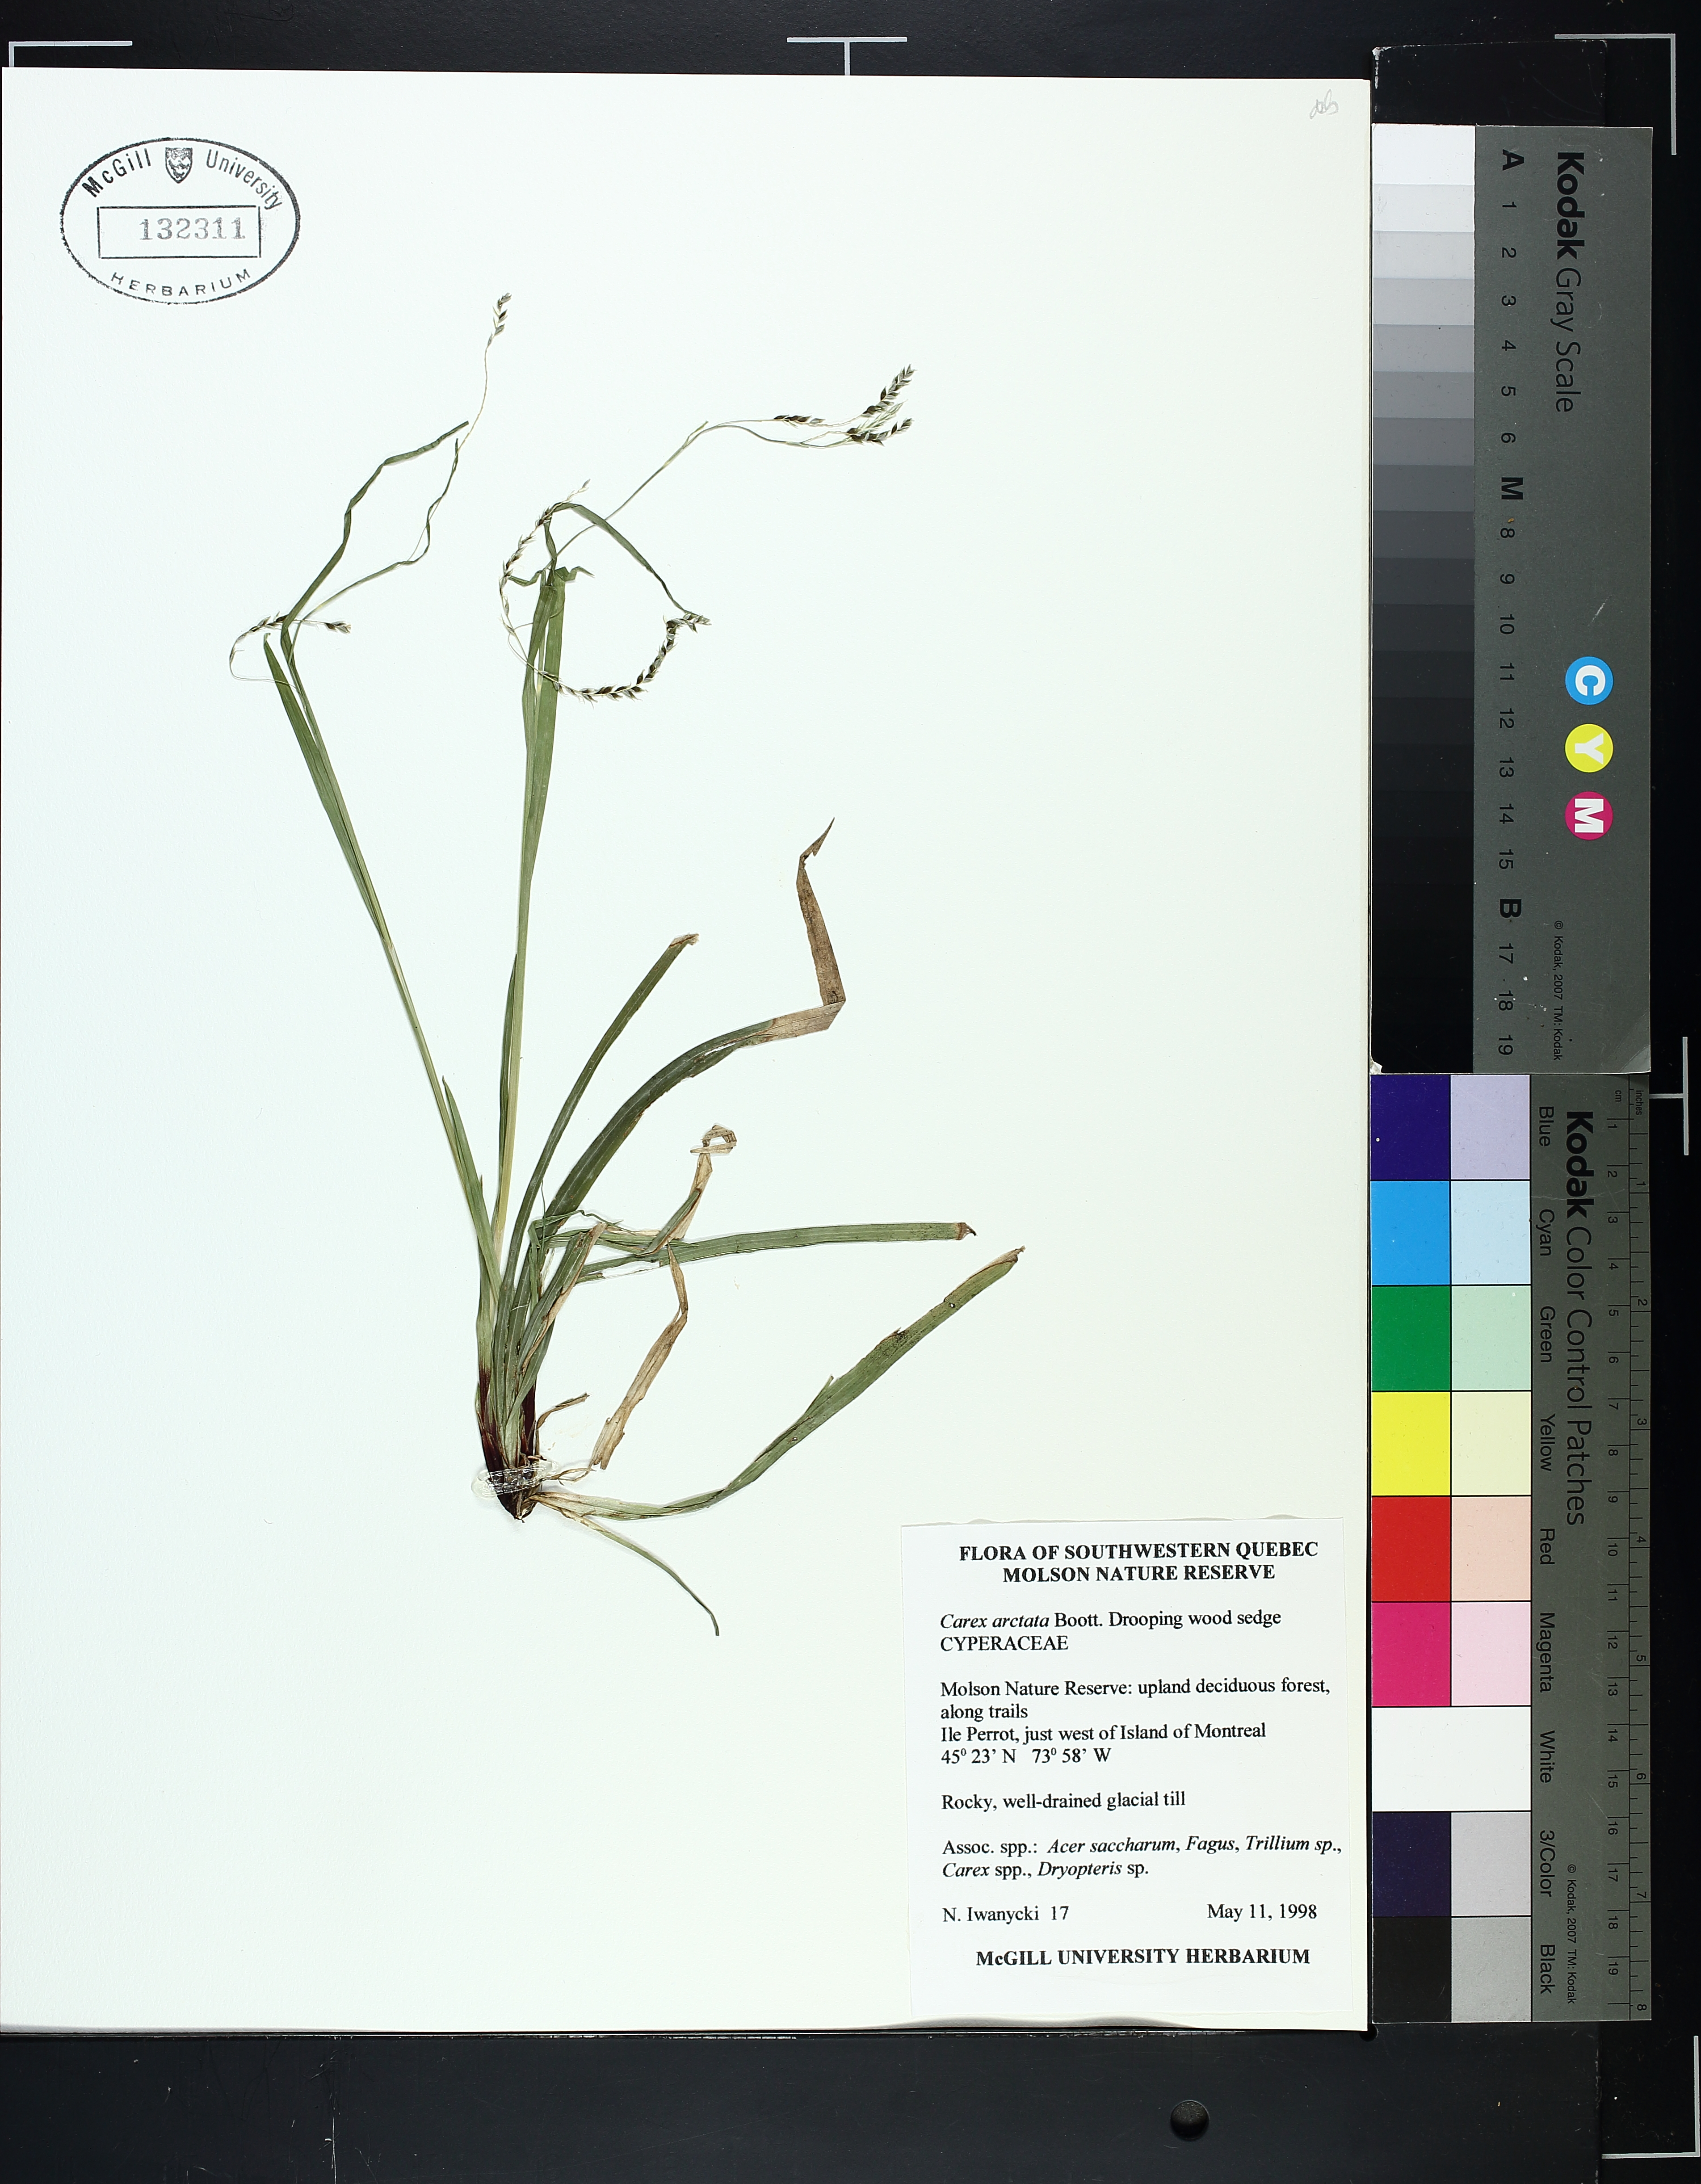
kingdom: Plantae
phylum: Tracheophyta
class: Liliopsida
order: Poales
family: Cyperaceae
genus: Carex
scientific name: Carex arctata
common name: Black sedge
